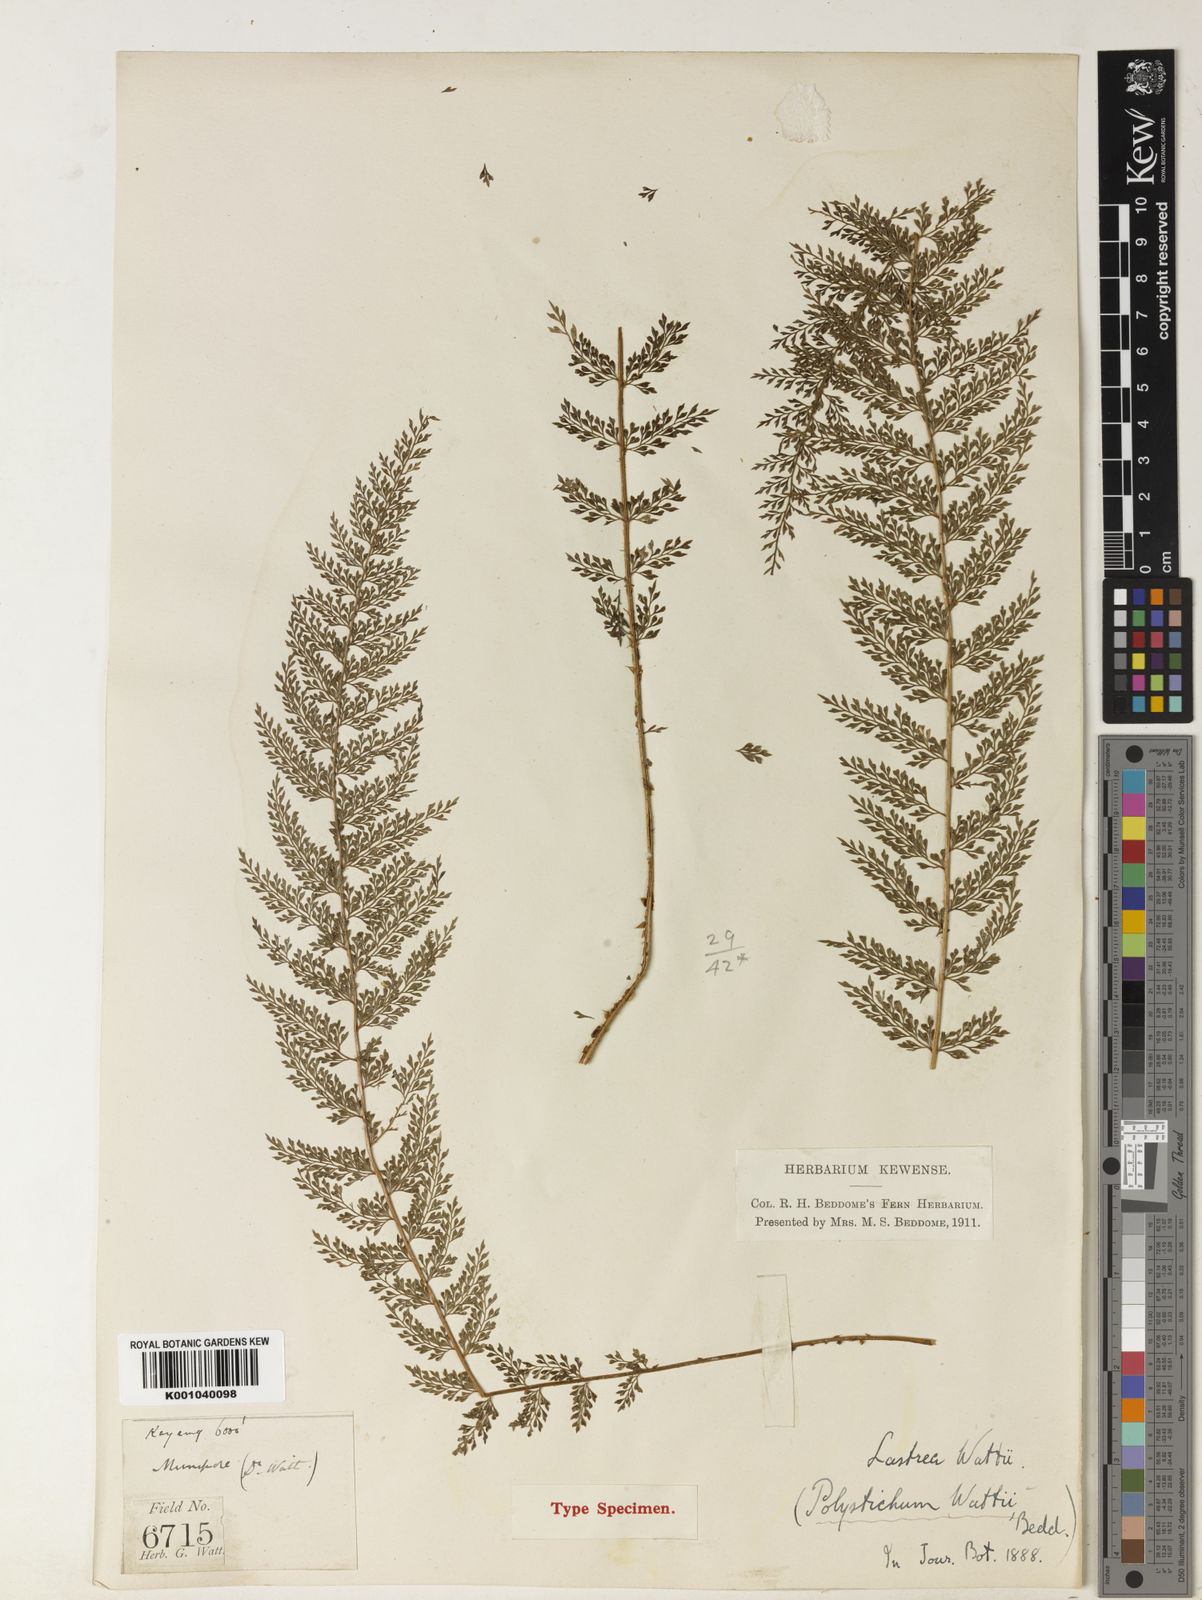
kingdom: Plantae
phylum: Tracheophyta
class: Polypodiopsida
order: Polypodiales
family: Dryopteridaceae
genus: Polystichum
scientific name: Polystichum wattii
